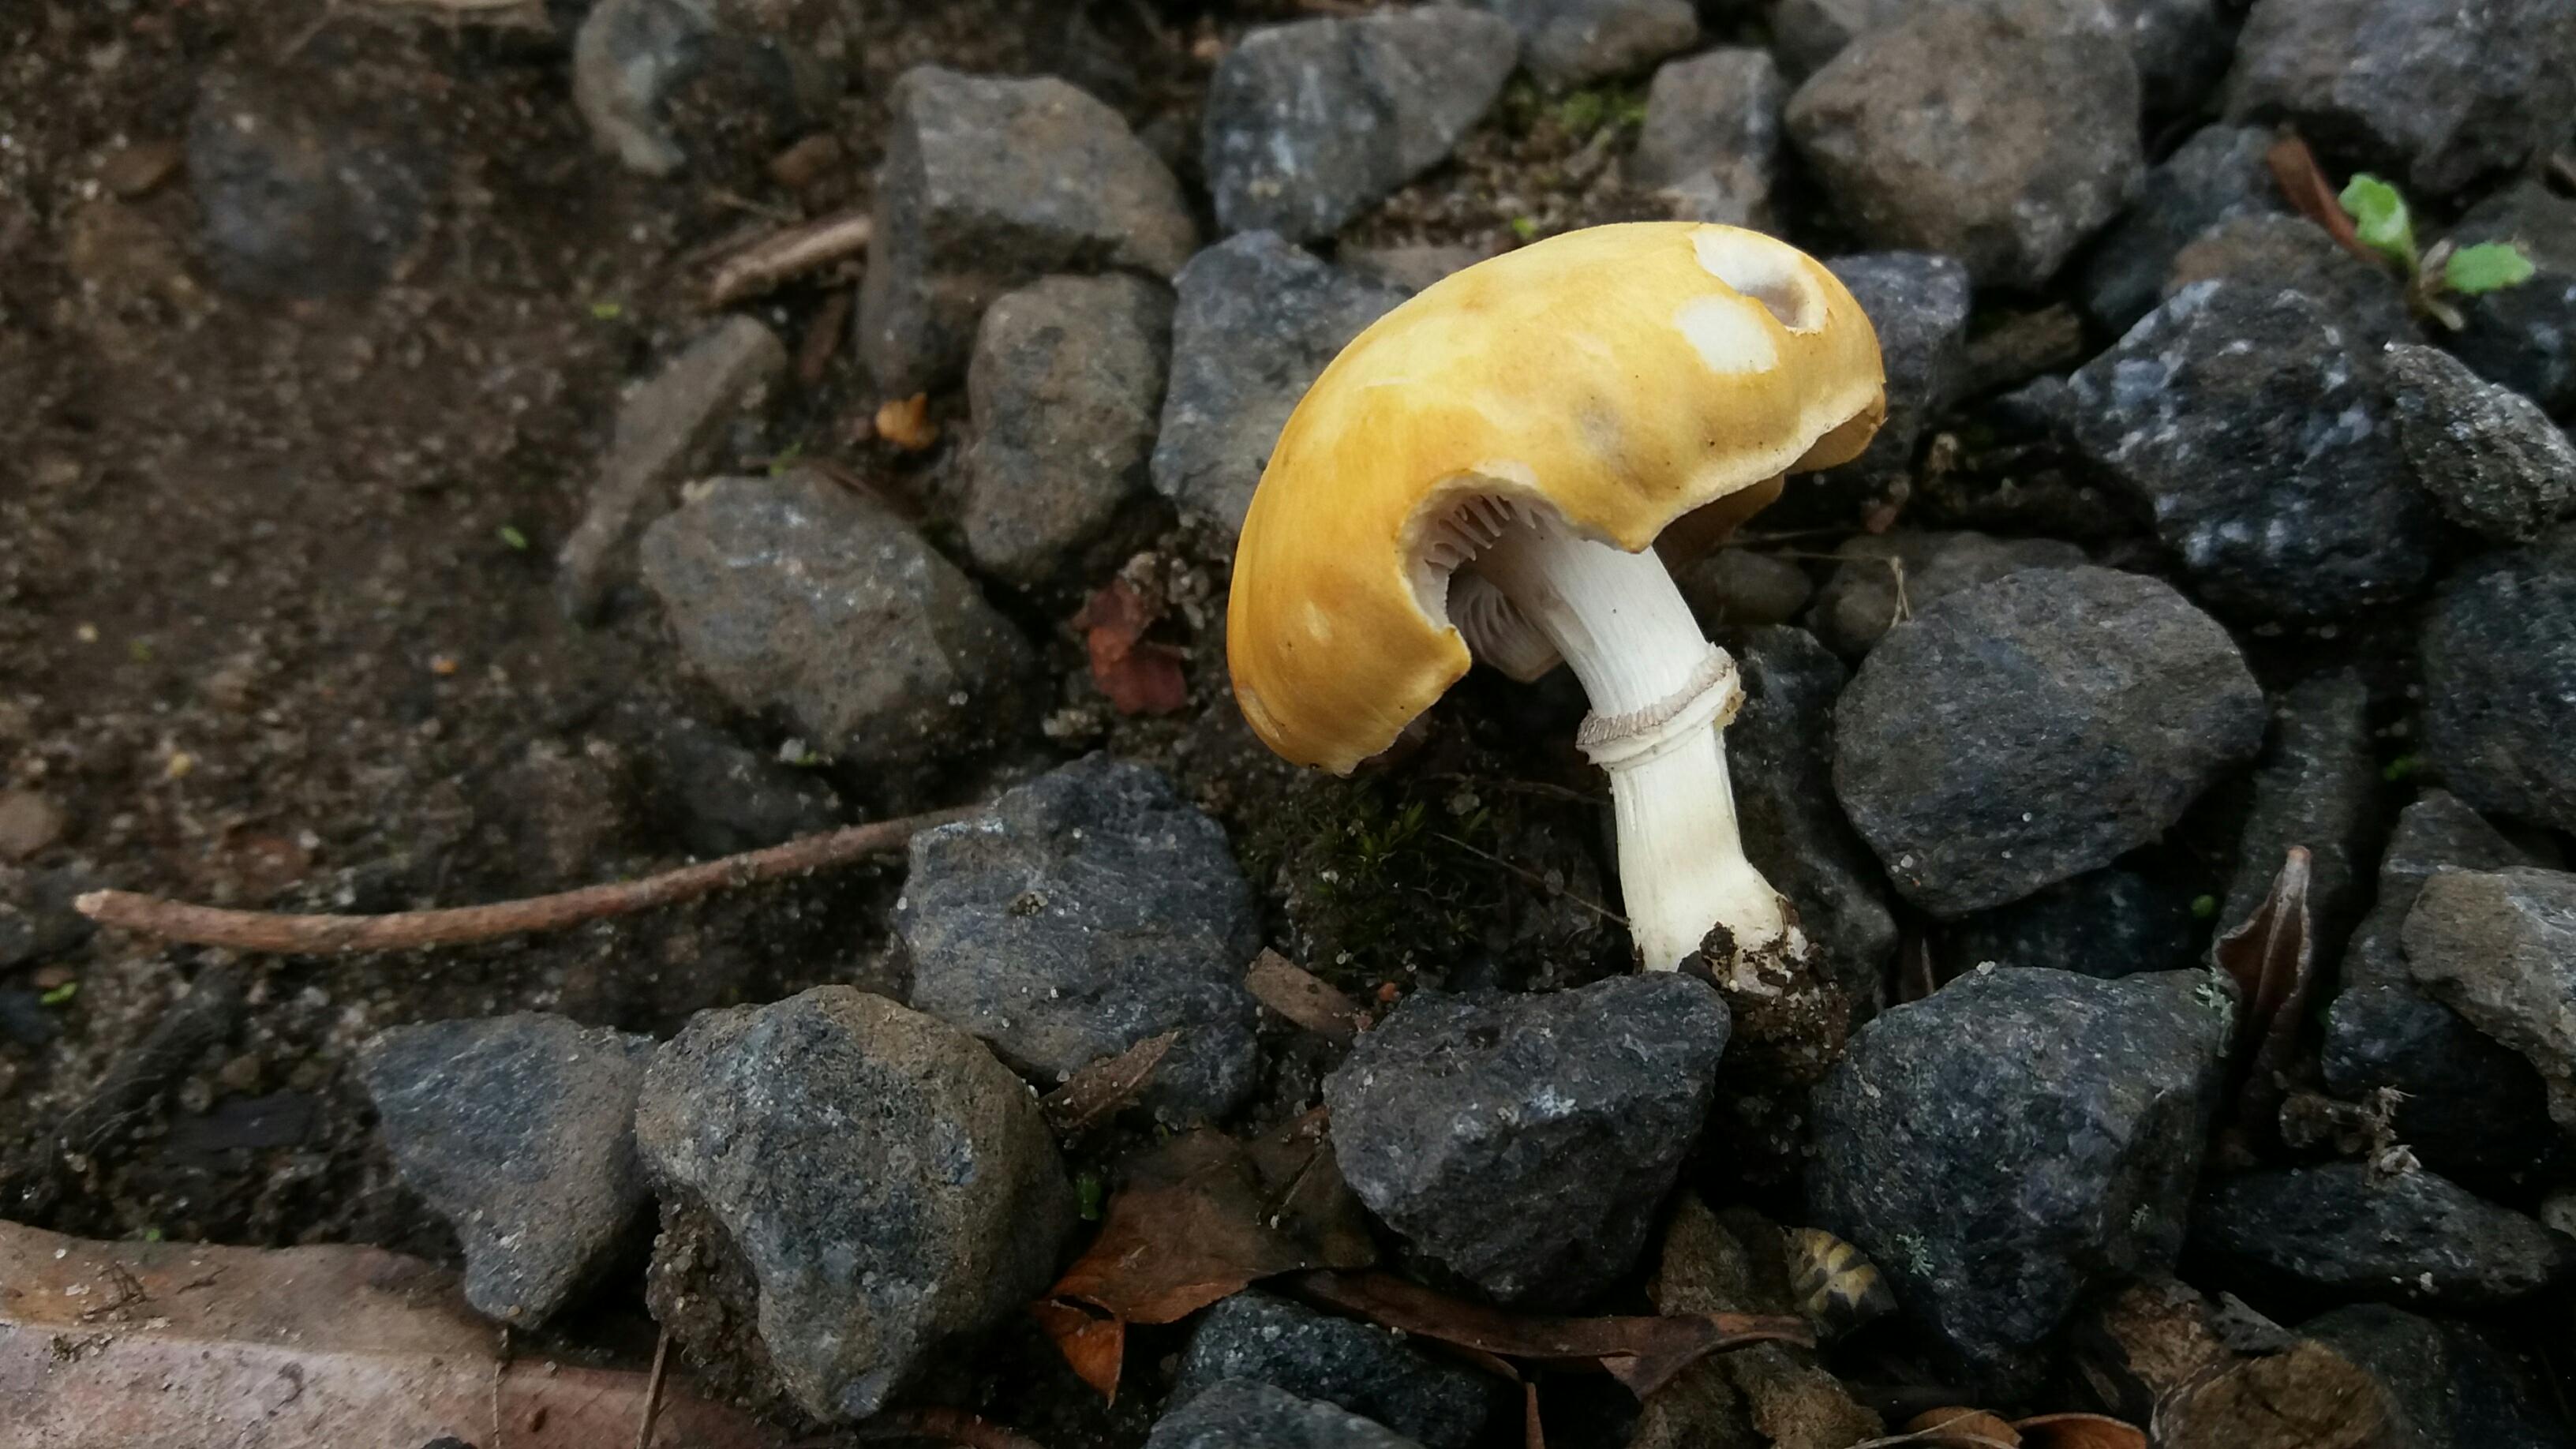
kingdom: Fungi
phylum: Basidiomycota
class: Agaricomycetes
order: Agaricales
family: Hymenogastraceae
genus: Psilocybe
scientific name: Psilocybe coronilla
